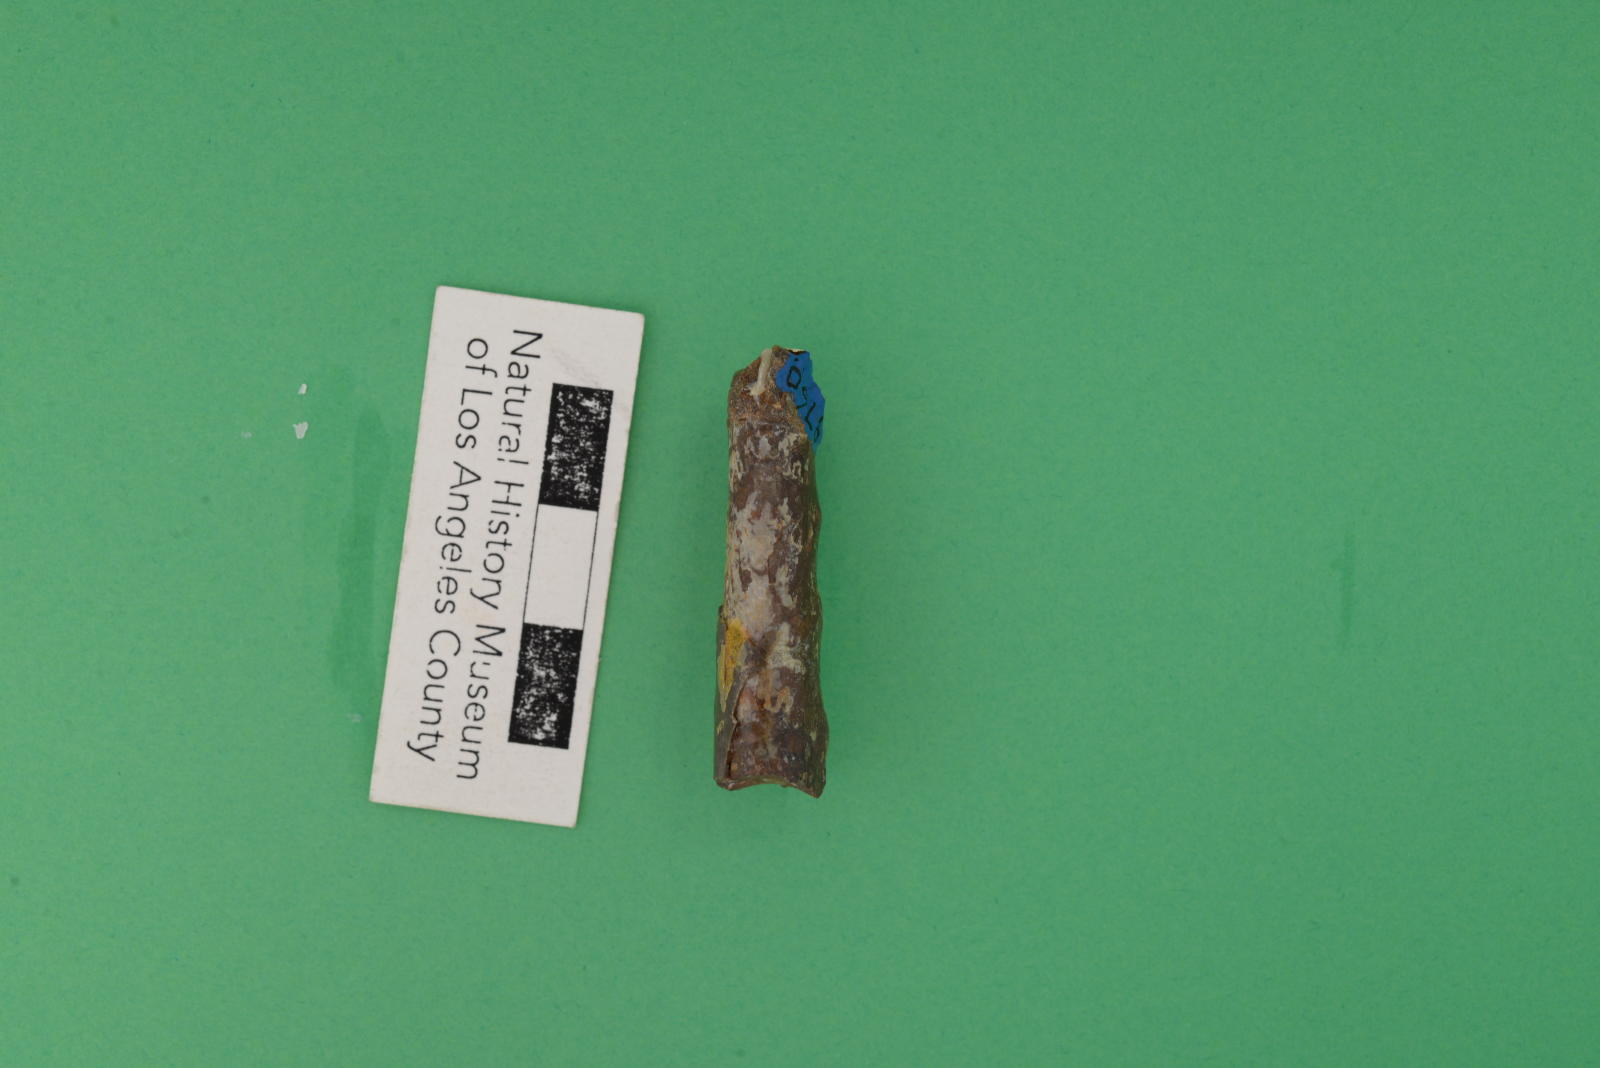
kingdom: Animalia
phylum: Mollusca
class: Cephalopoda
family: Baculitidae
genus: Baculites
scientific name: Baculites boulei
